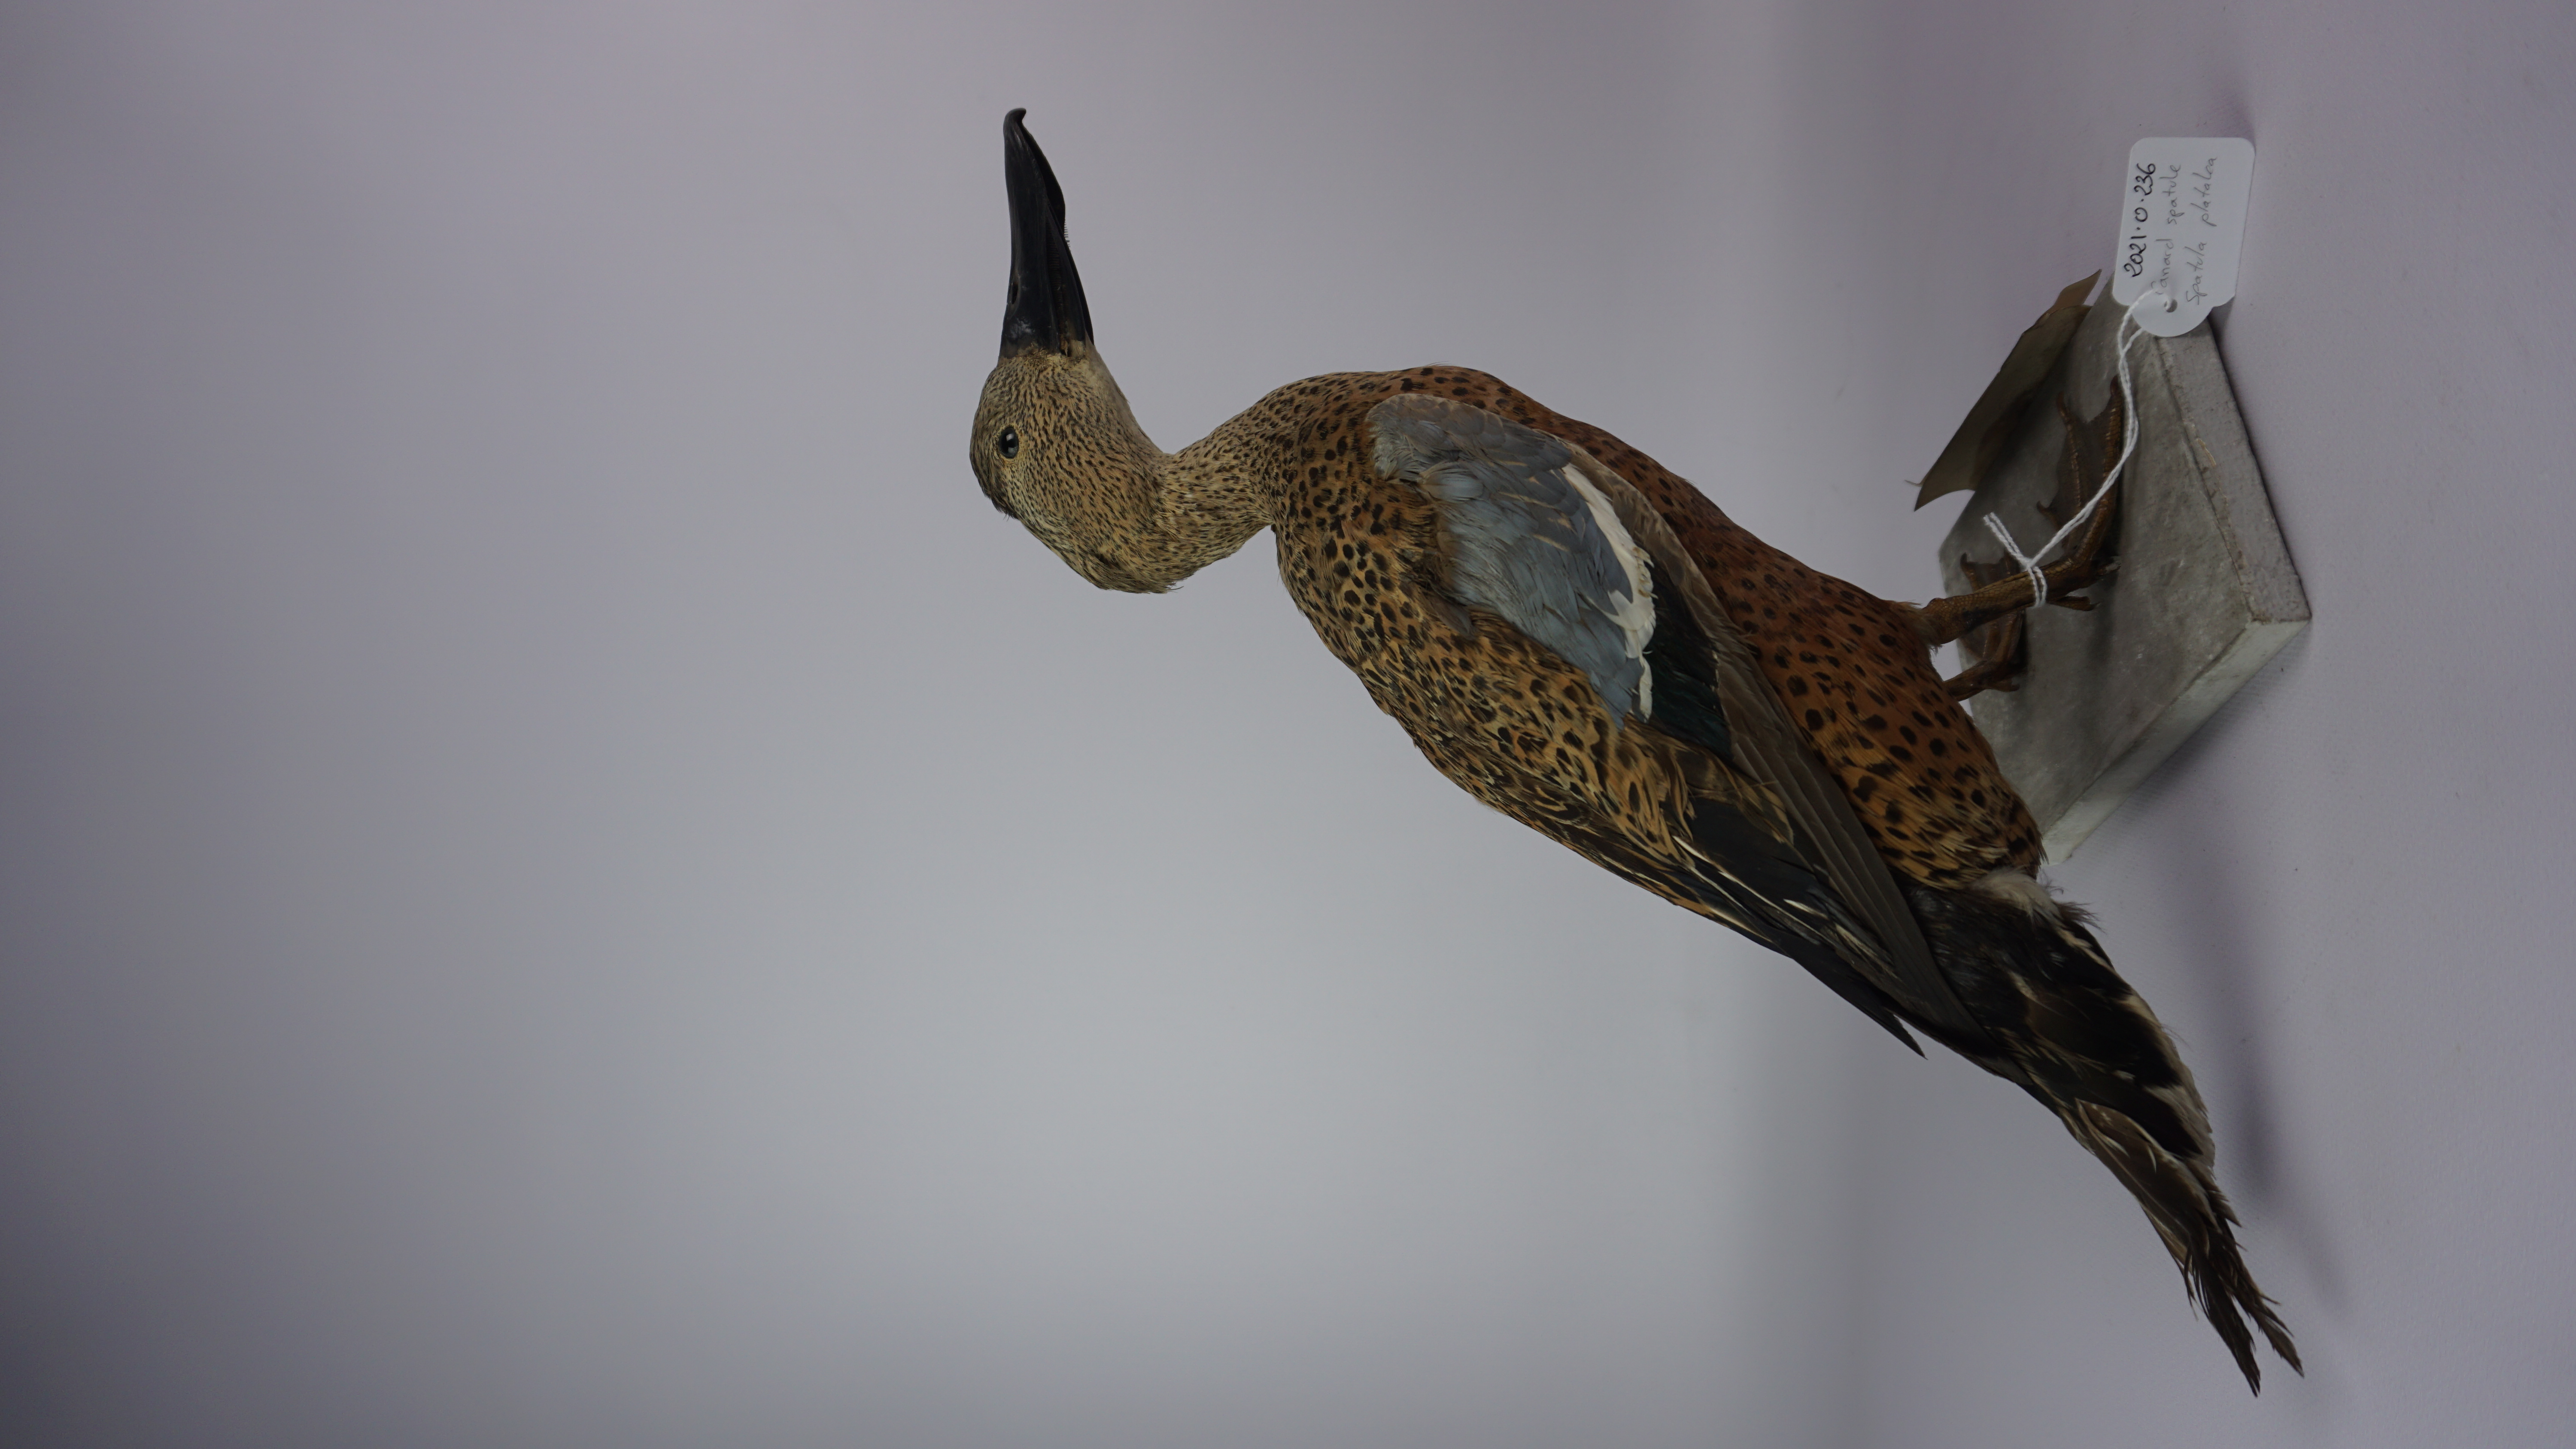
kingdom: Animalia
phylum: Chordata
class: Aves
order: Anseriformes
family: Anatidae
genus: Spatula
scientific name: Spatula platalea
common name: Red shoveler
